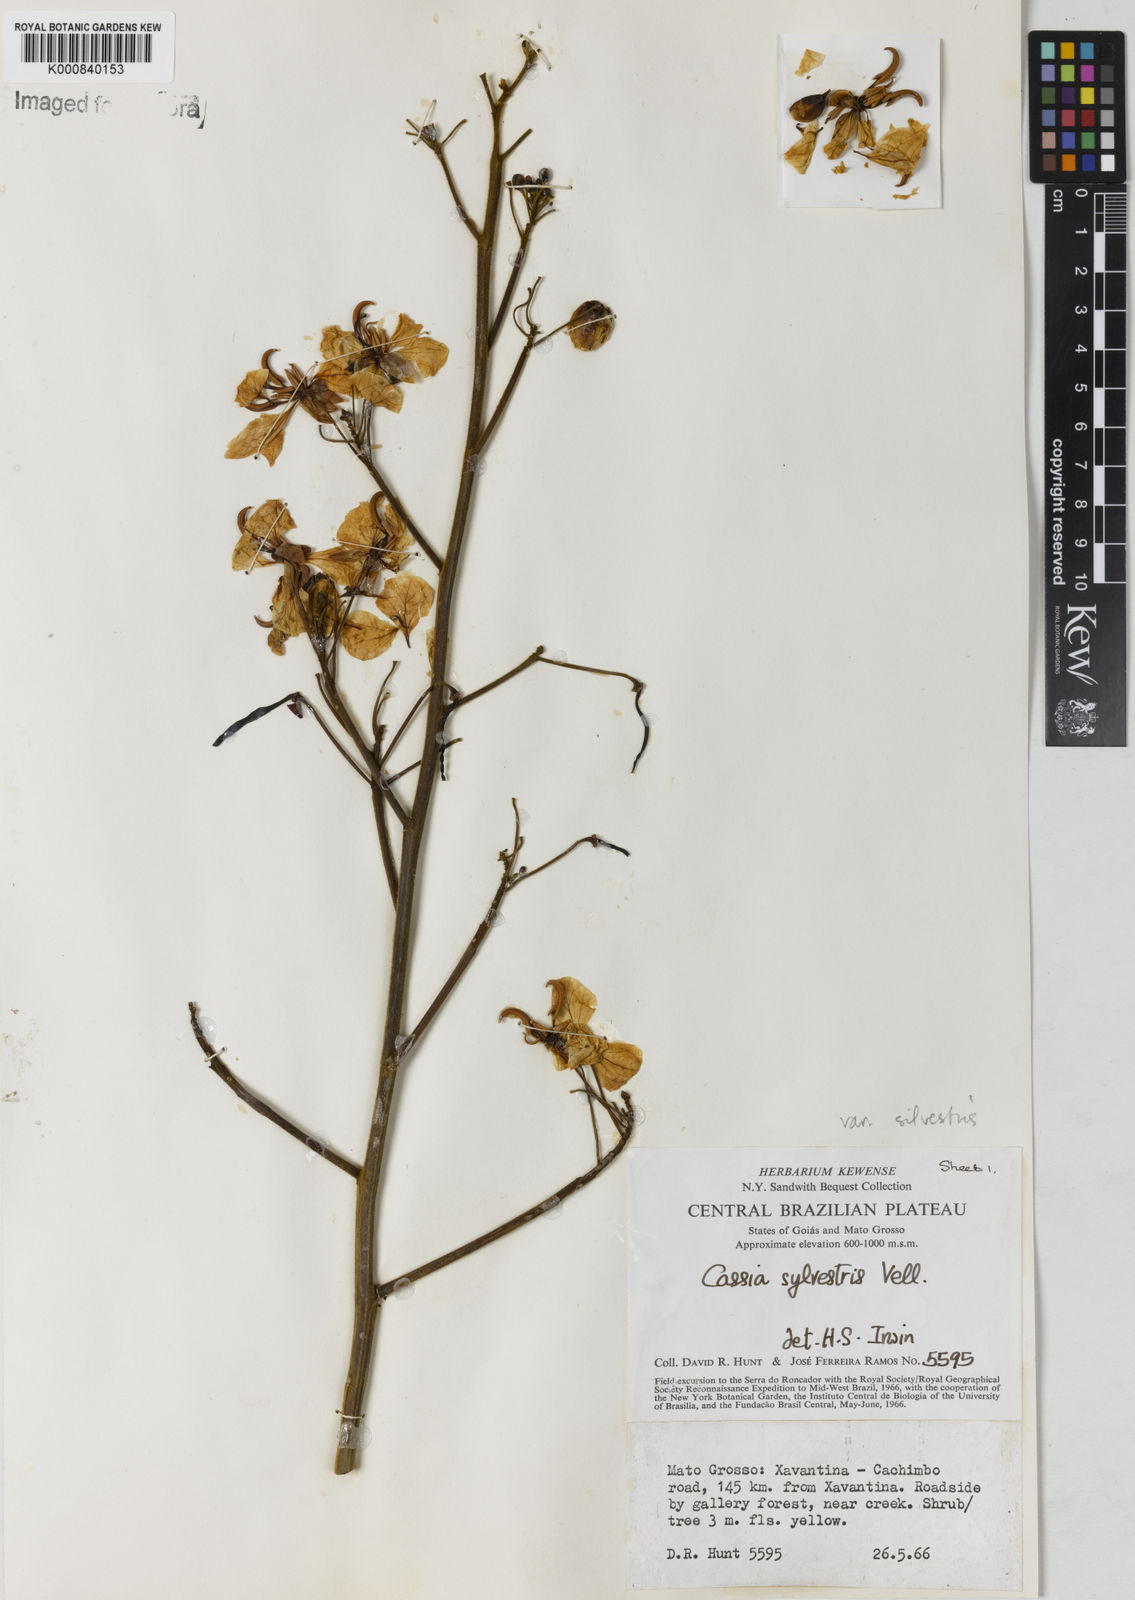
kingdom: Plantae
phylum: Tracheophyta
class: Magnoliopsida
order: Fabales
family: Fabaceae
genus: Senna
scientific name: Senna silvestris
